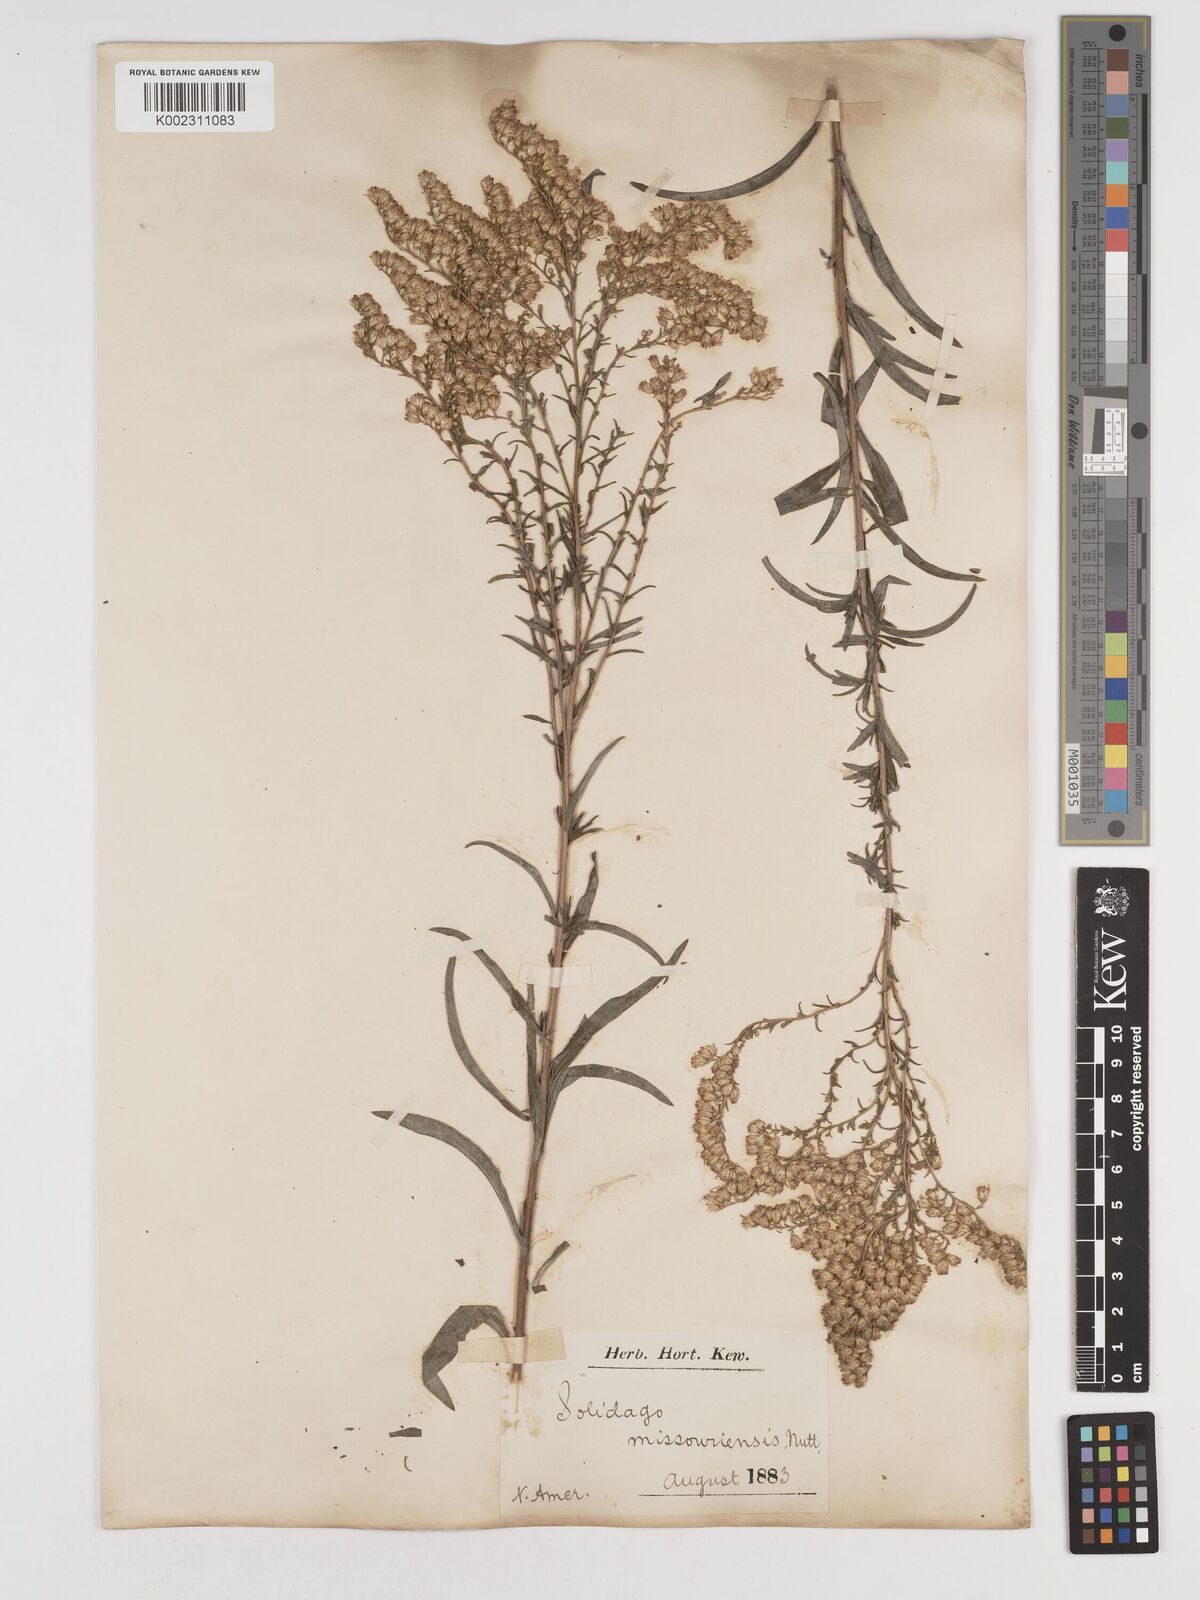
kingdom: Plantae
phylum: Tracheophyta
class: Magnoliopsida
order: Asterales
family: Asteraceae
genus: Solidago
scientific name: Solidago missouriensis
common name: Prairie goldenrod
